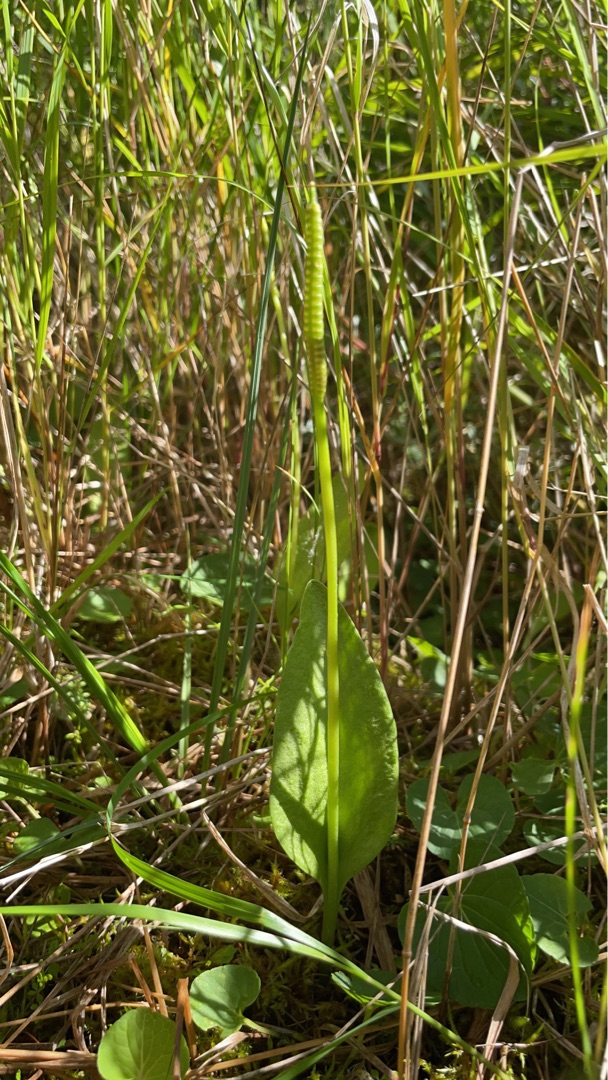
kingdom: Plantae
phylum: Tracheophyta
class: Polypodiopsida
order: Ophioglossales
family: Ophioglossaceae
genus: Ophioglossum
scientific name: Ophioglossum vulgatum
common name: Slangetunge
